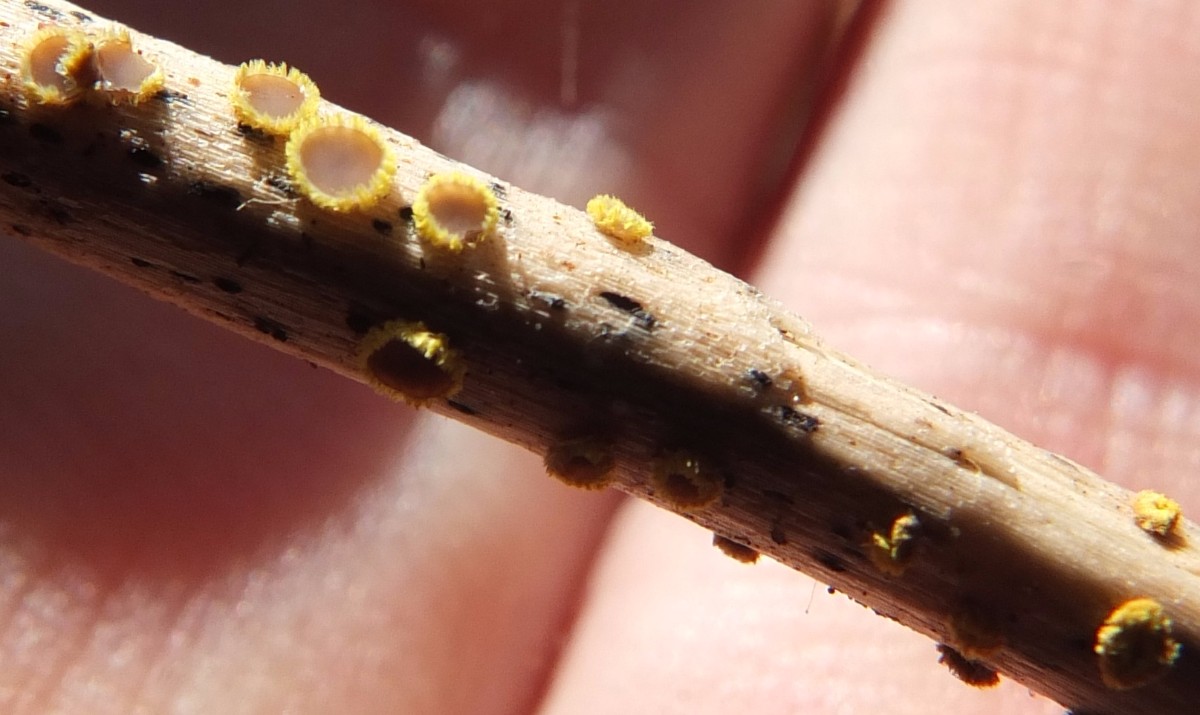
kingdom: Fungi
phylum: Ascomycota
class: Leotiomycetes
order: Helotiales
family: Lachnaceae
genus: Lachnum
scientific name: Lachnum mollissimum
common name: smuk frynseskive
